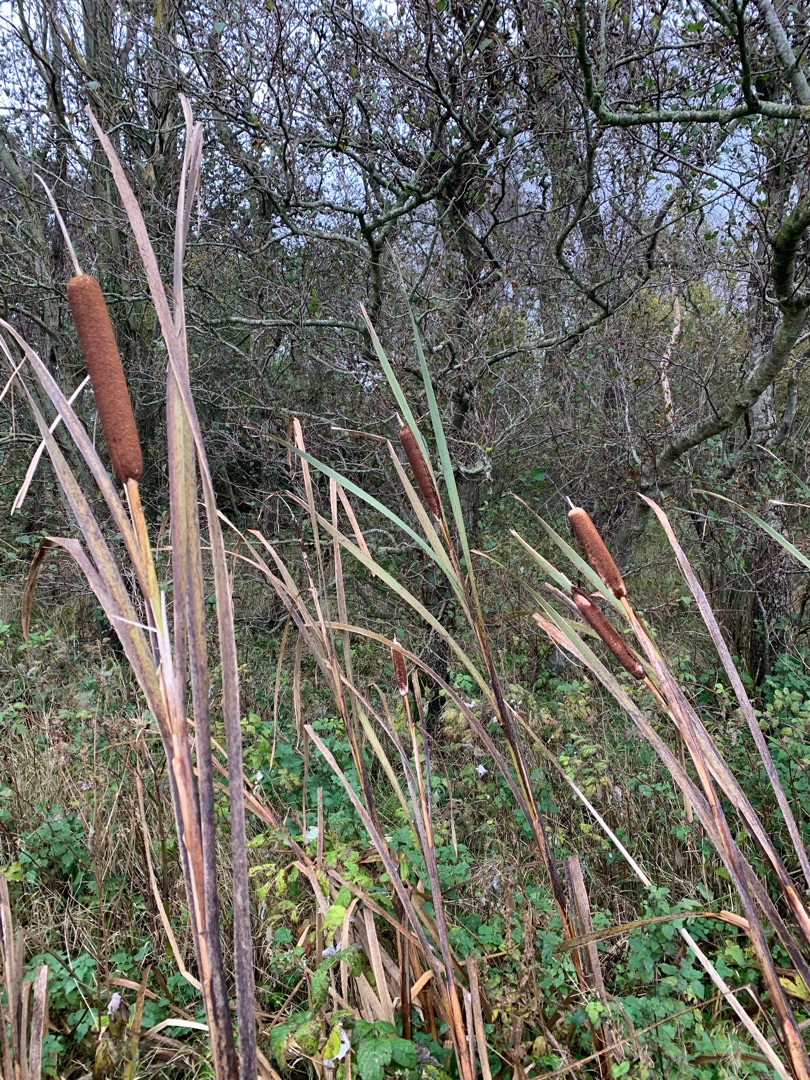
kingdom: Plantae
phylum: Tracheophyta
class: Liliopsida
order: Poales
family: Typhaceae
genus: Typha
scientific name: Typha latifolia
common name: Bredbladet dunhammer
